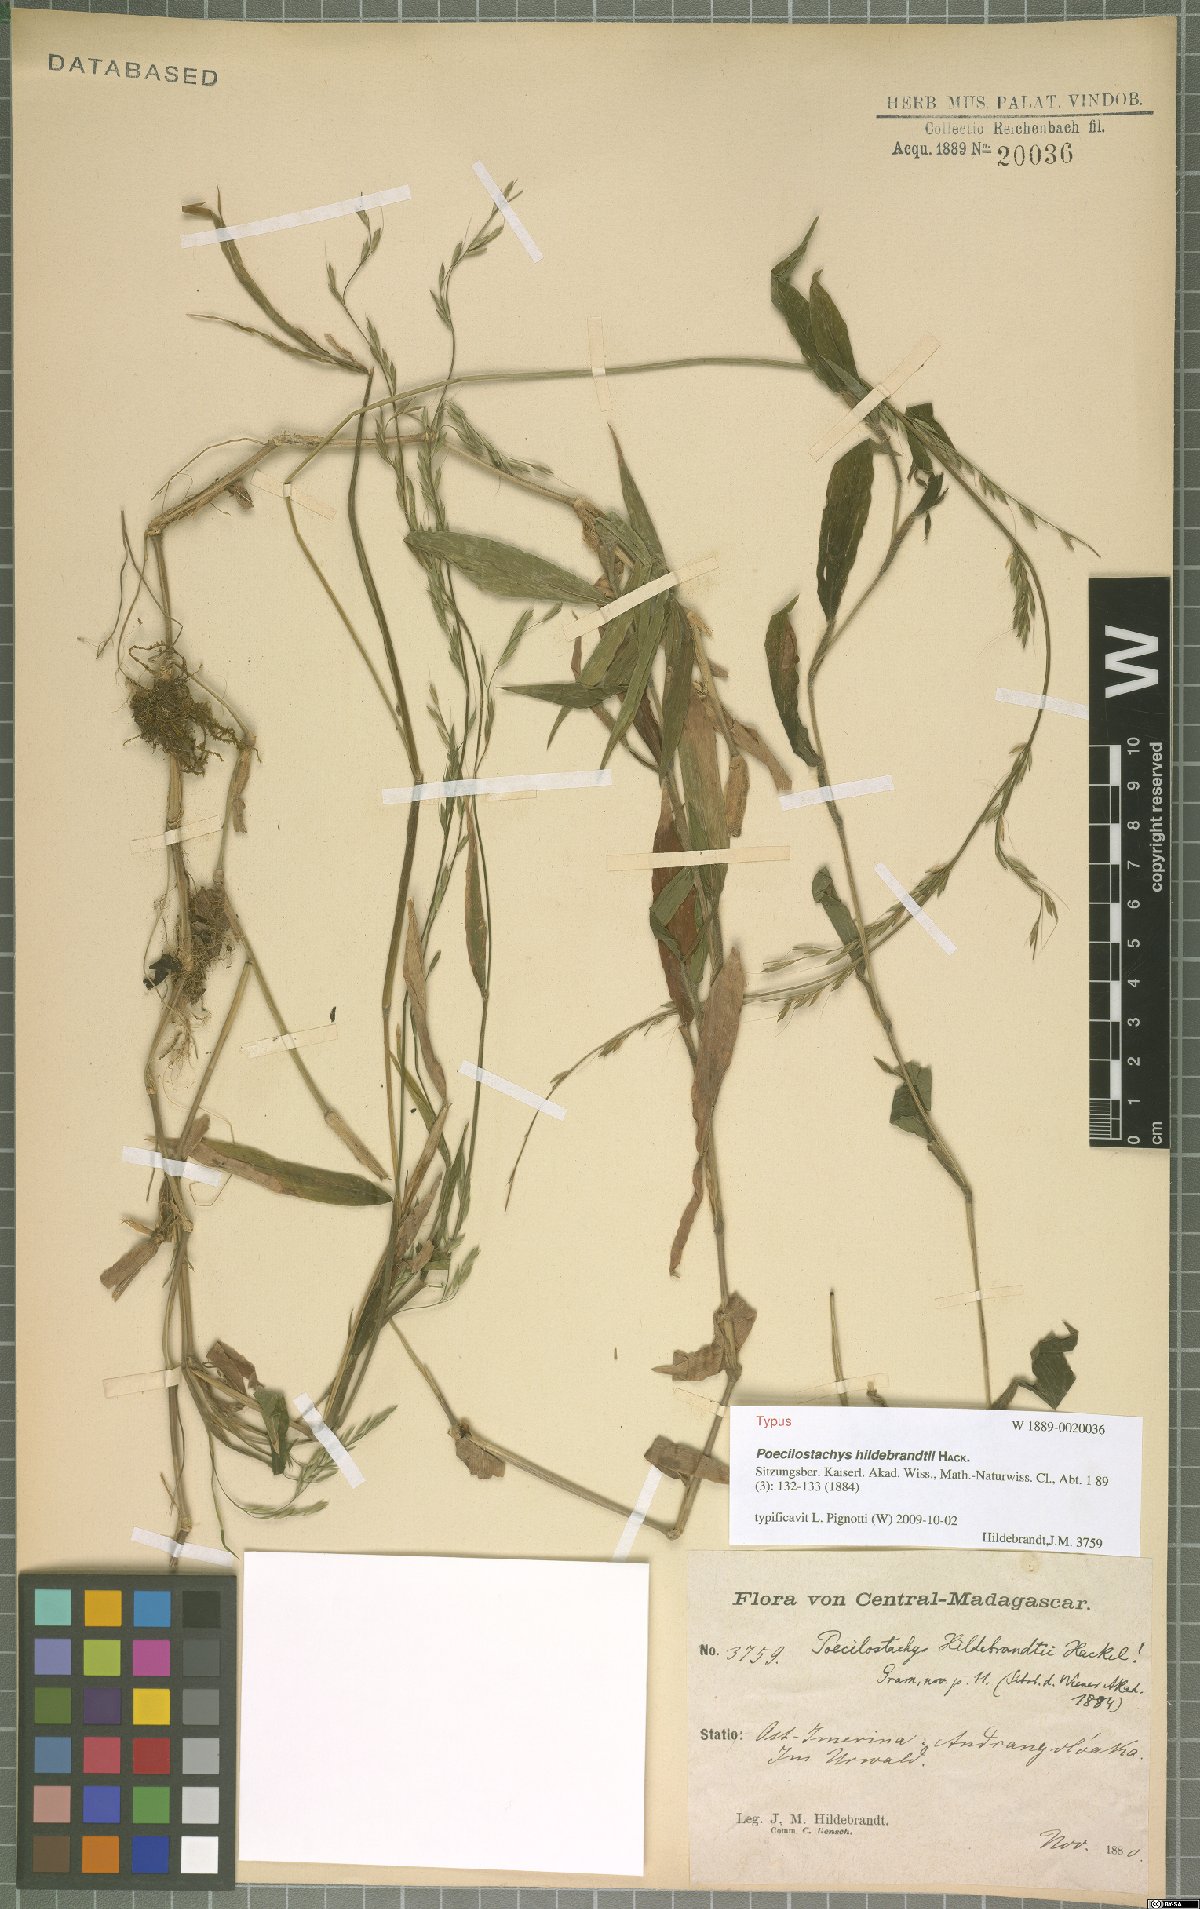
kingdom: Plantae
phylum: Tracheophyta
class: Liliopsida
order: Poales
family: Poaceae
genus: Poecilostachys
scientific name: Poecilostachys hildebrandtii
